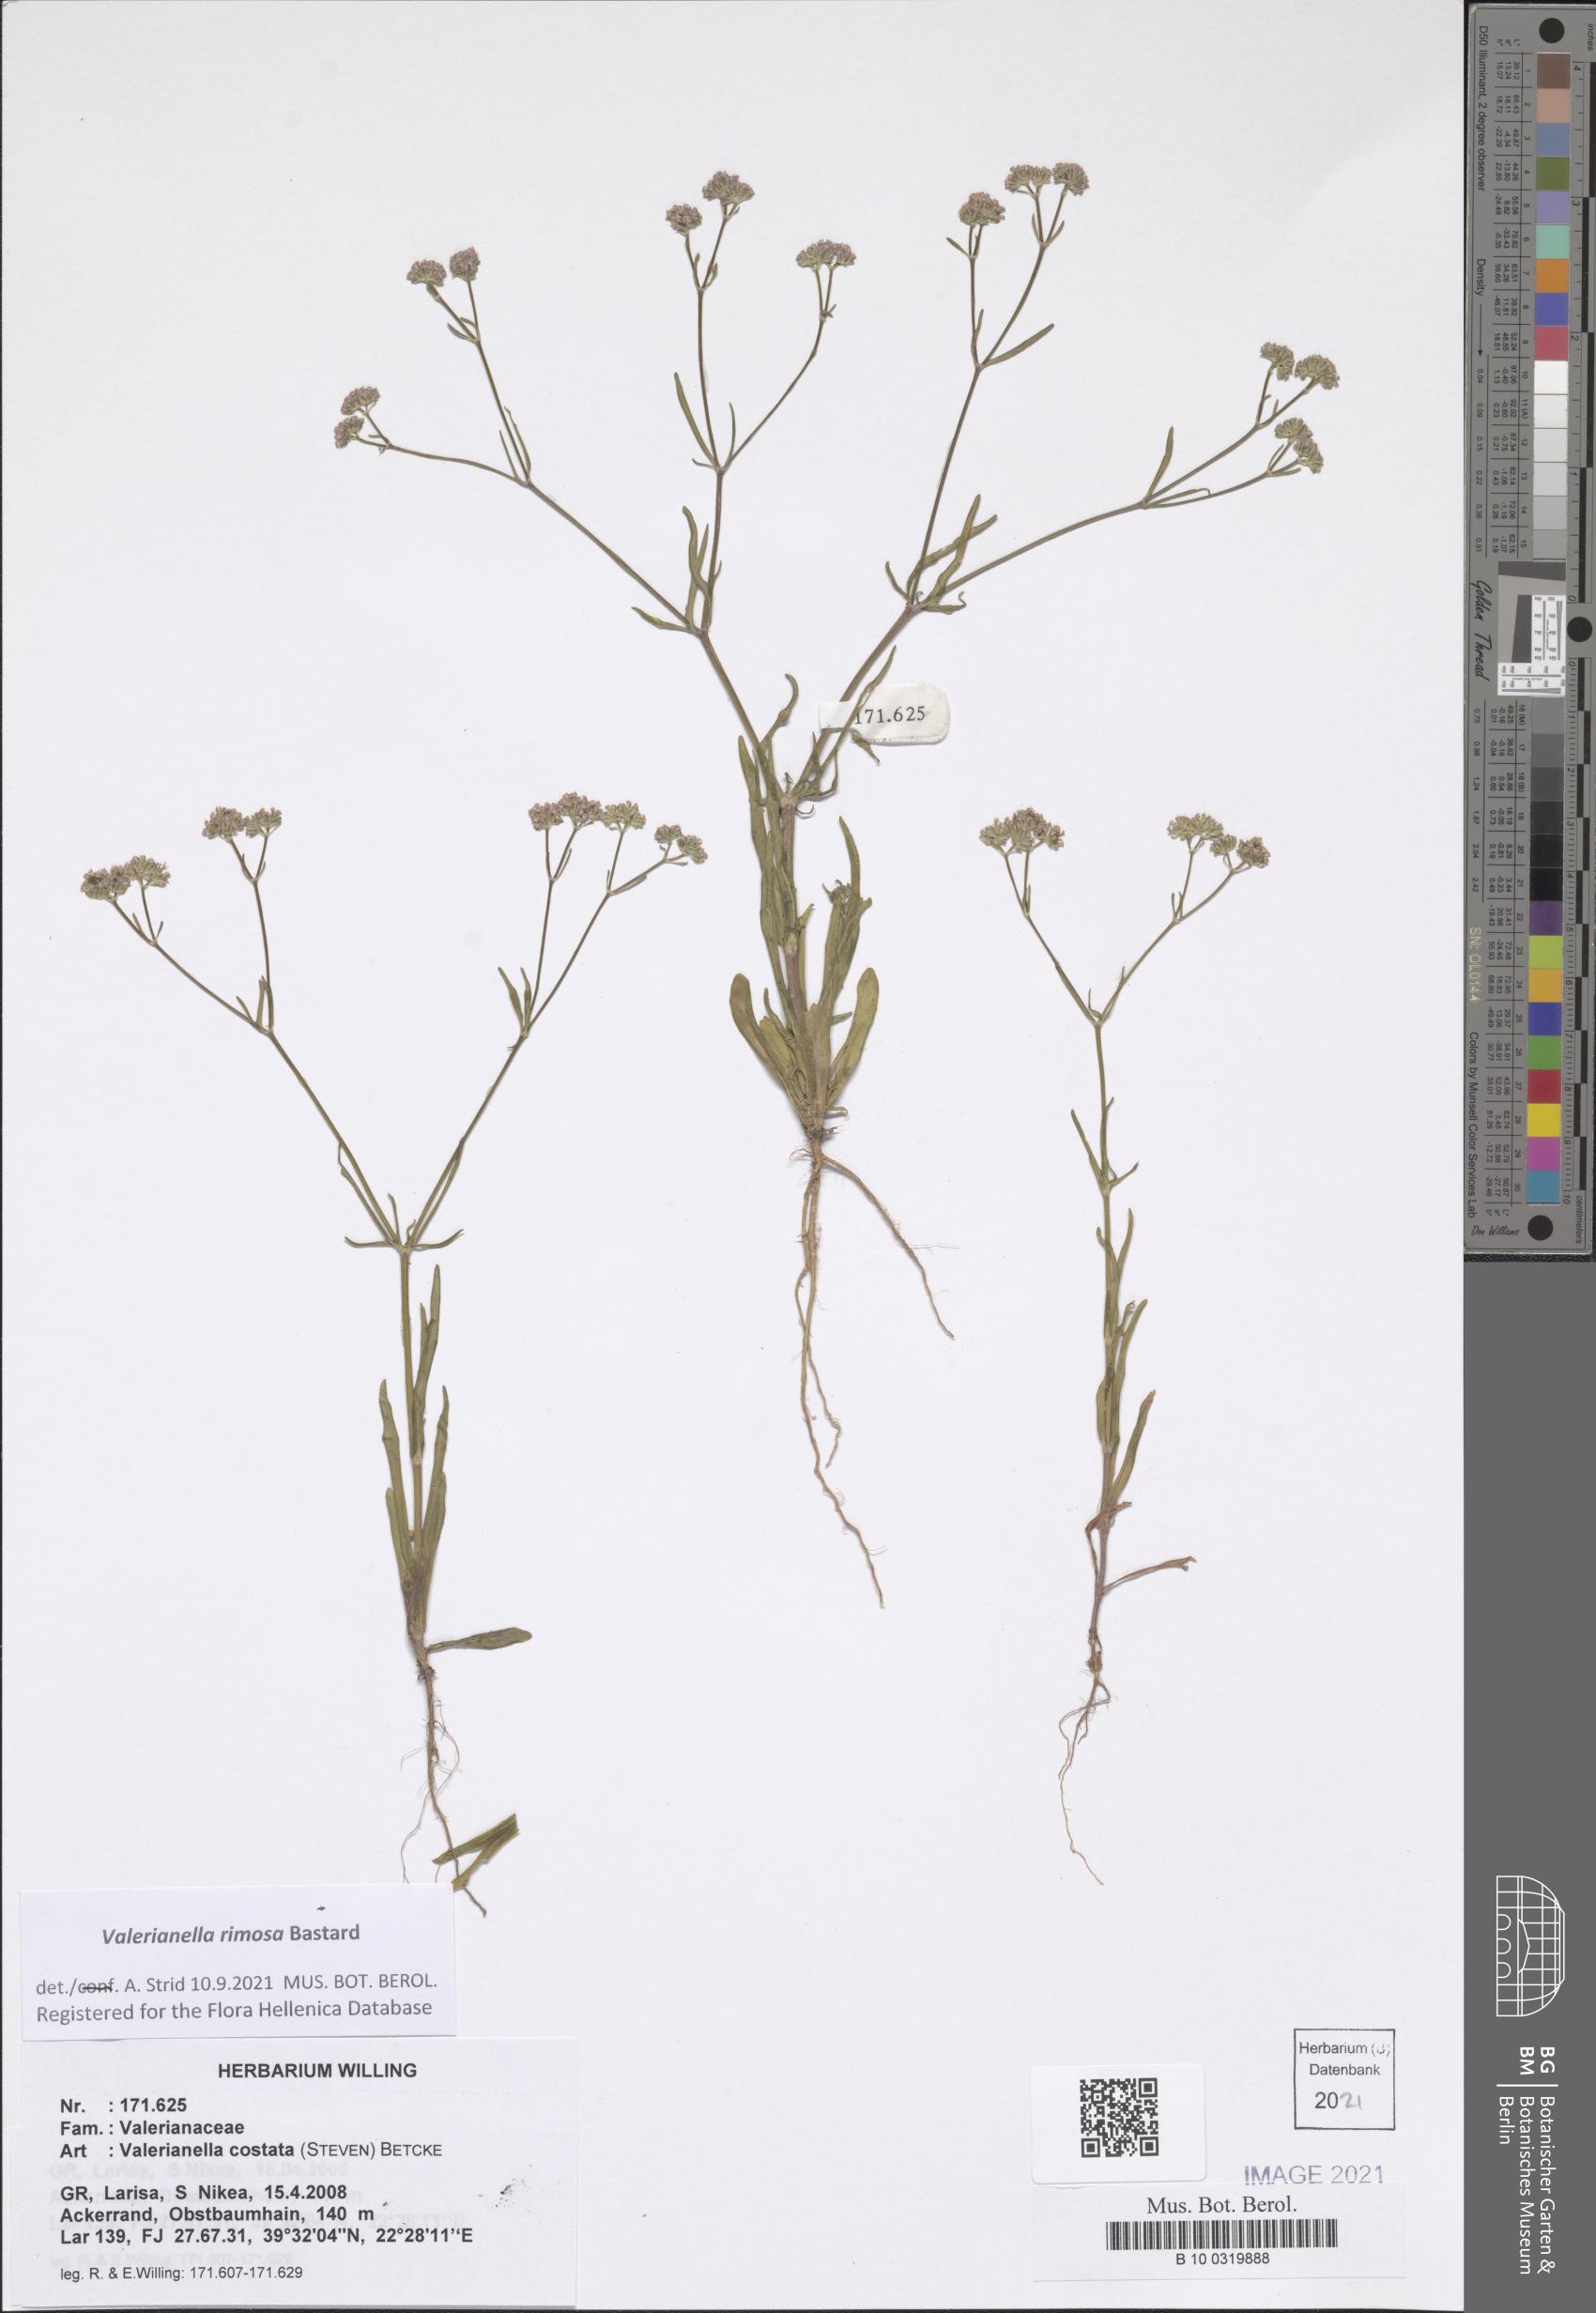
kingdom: Plantae
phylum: Tracheophyta
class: Magnoliopsida
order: Dipsacales
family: Caprifoliaceae
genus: Valerianella
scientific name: Valerianella rimosa
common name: Broad-fruited cornsalad
